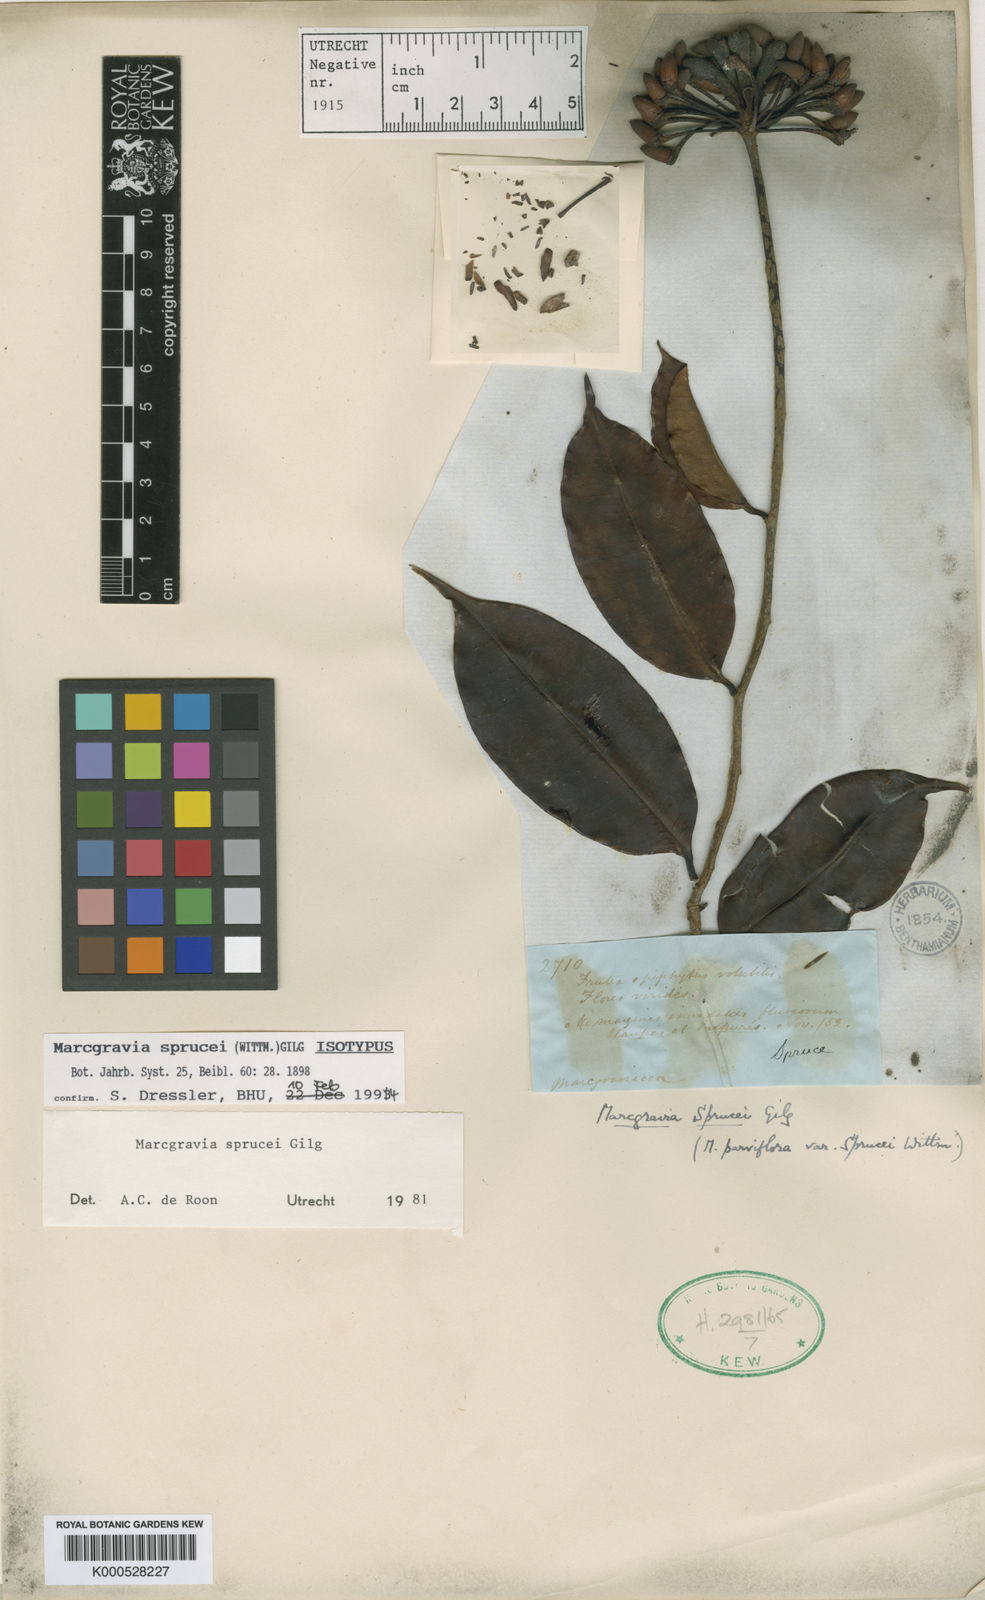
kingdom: Plantae
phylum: Tracheophyta
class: Magnoliopsida
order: Ericales
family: Marcgraviaceae
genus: Marcgravia
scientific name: Marcgravia sprucei
